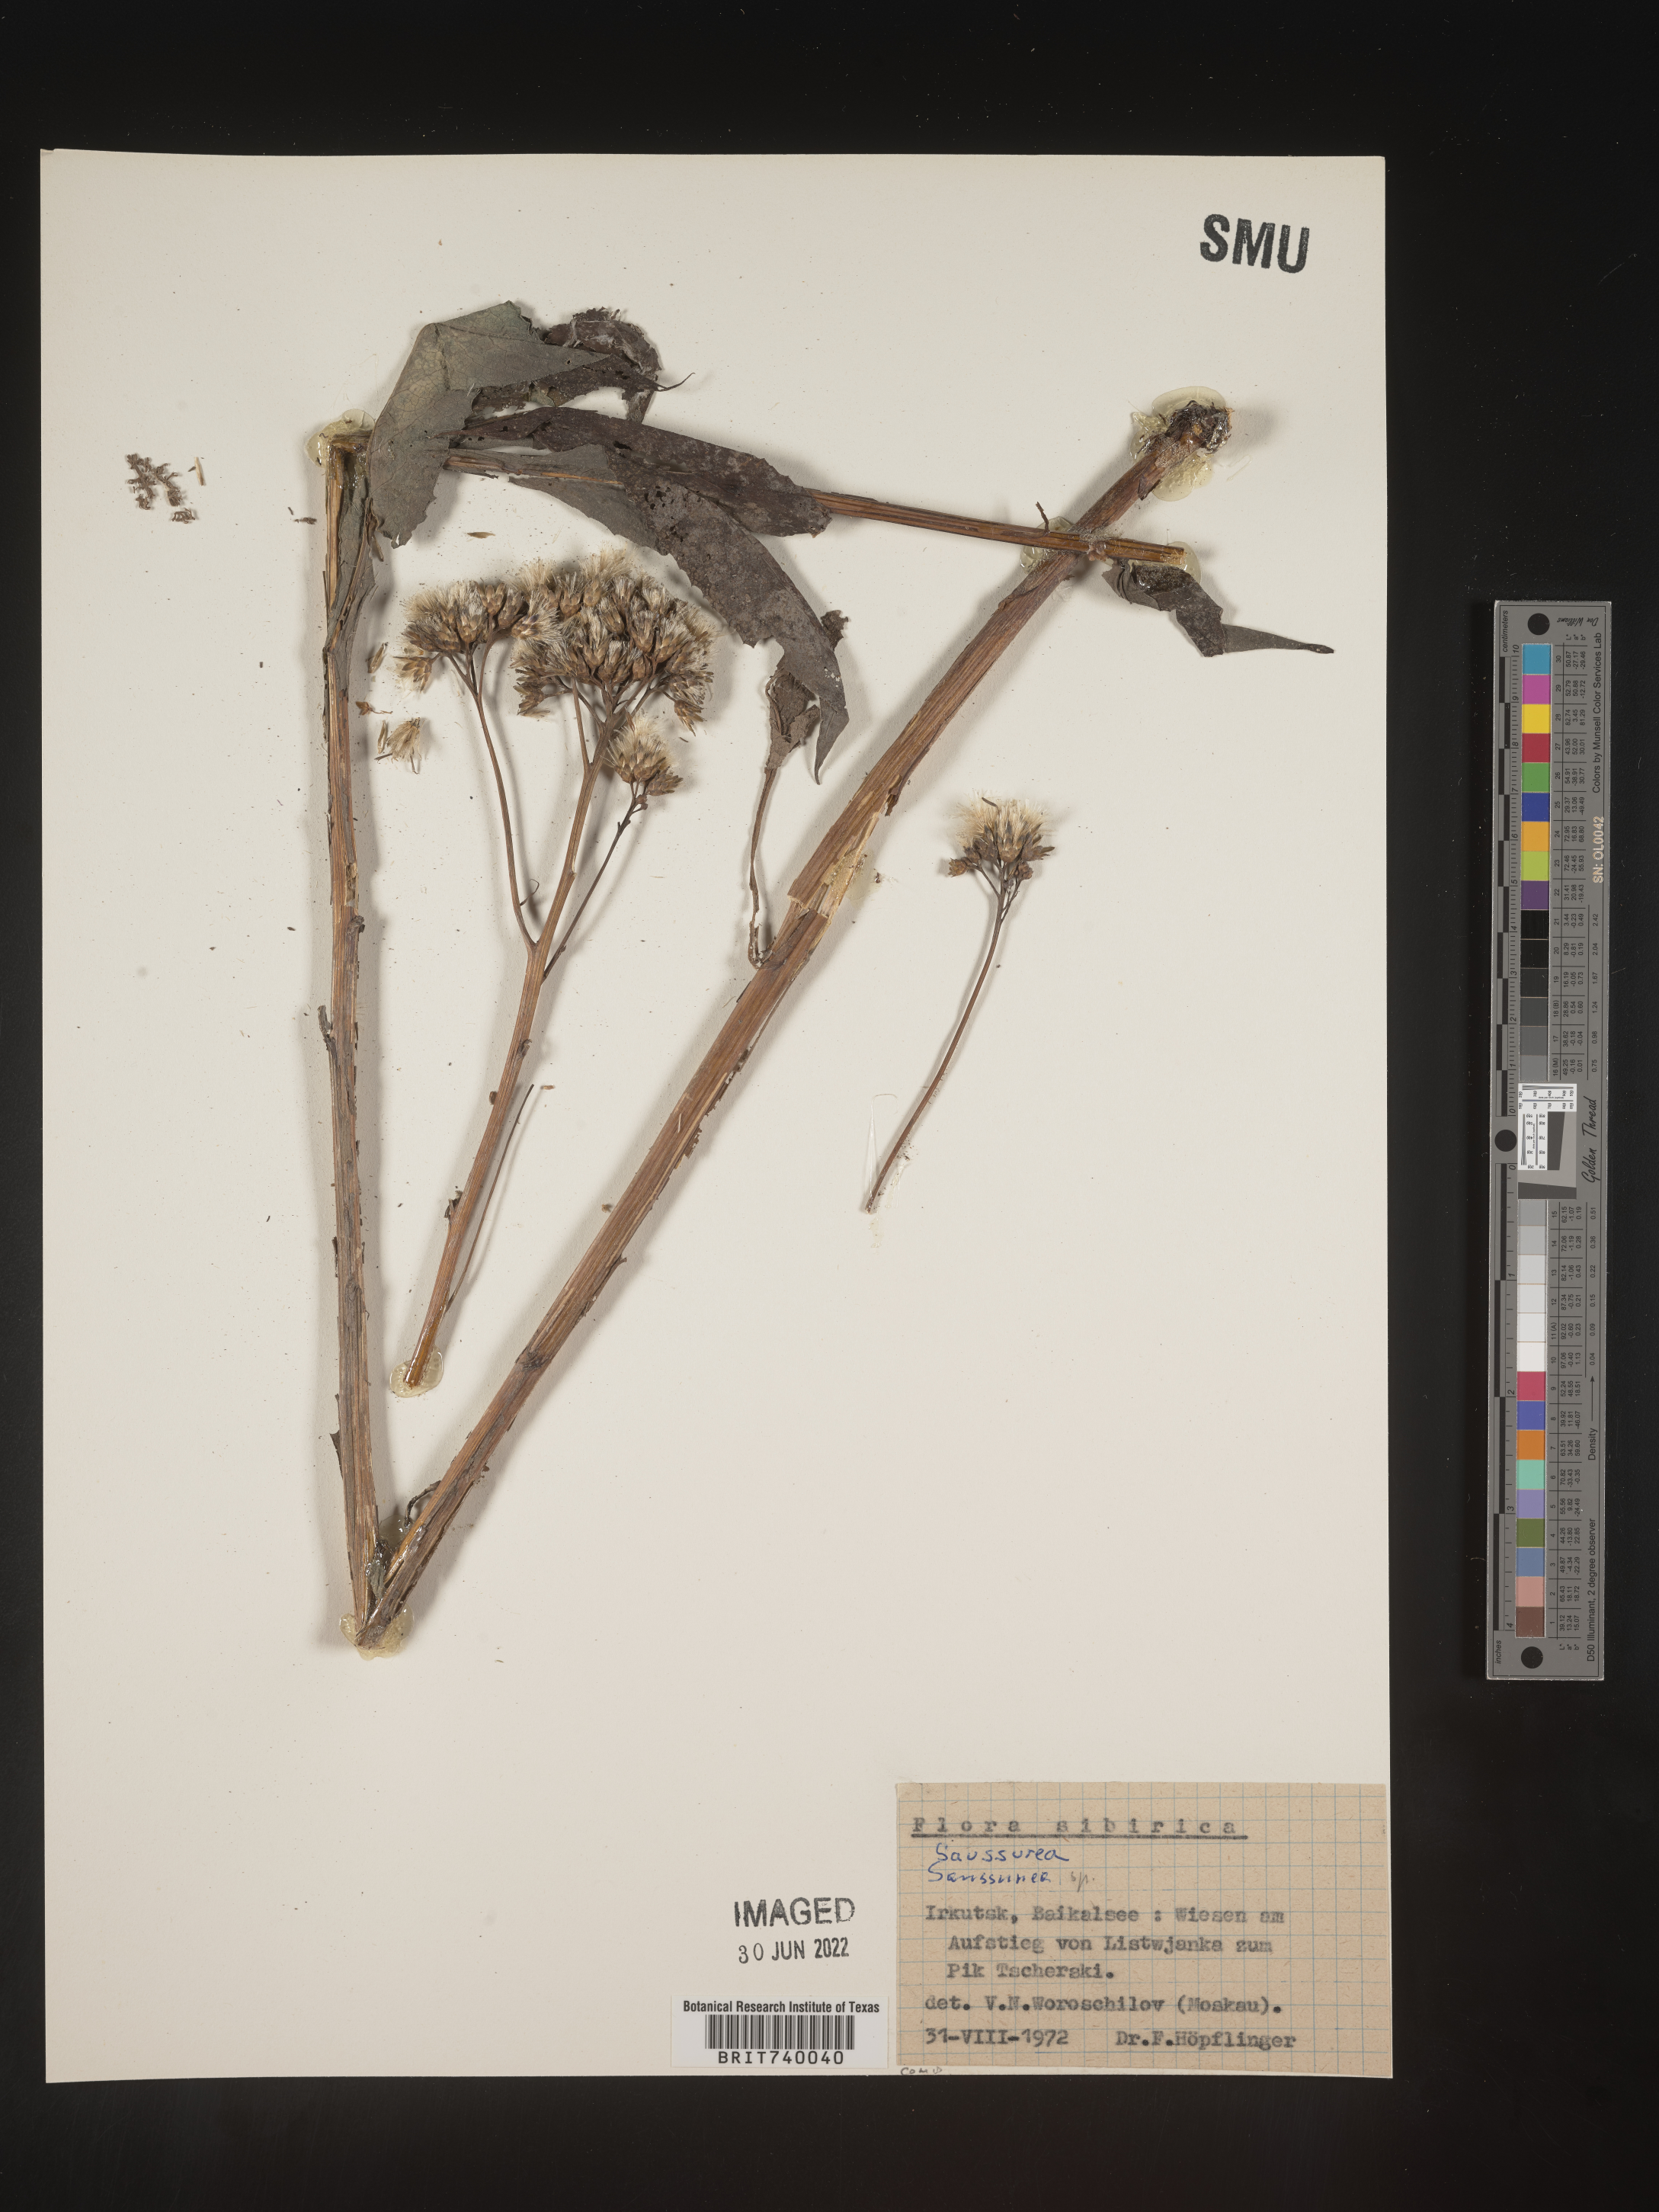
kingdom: Plantae
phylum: Tracheophyta
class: Magnoliopsida
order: Asterales
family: Asteraceae
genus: Saussurea
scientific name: Saussurea
